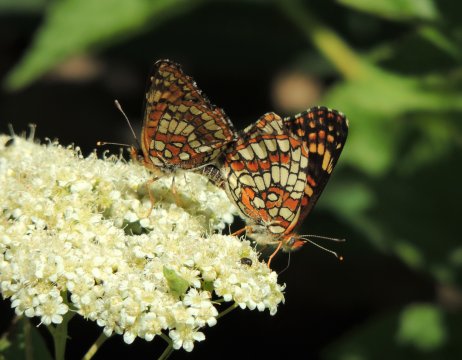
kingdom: Animalia
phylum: Arthropoda
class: Insecta
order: Lepidoptera
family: Nymphalidae
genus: Chlosyne
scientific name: Chlosyne palla
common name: Northern Checkerspot
